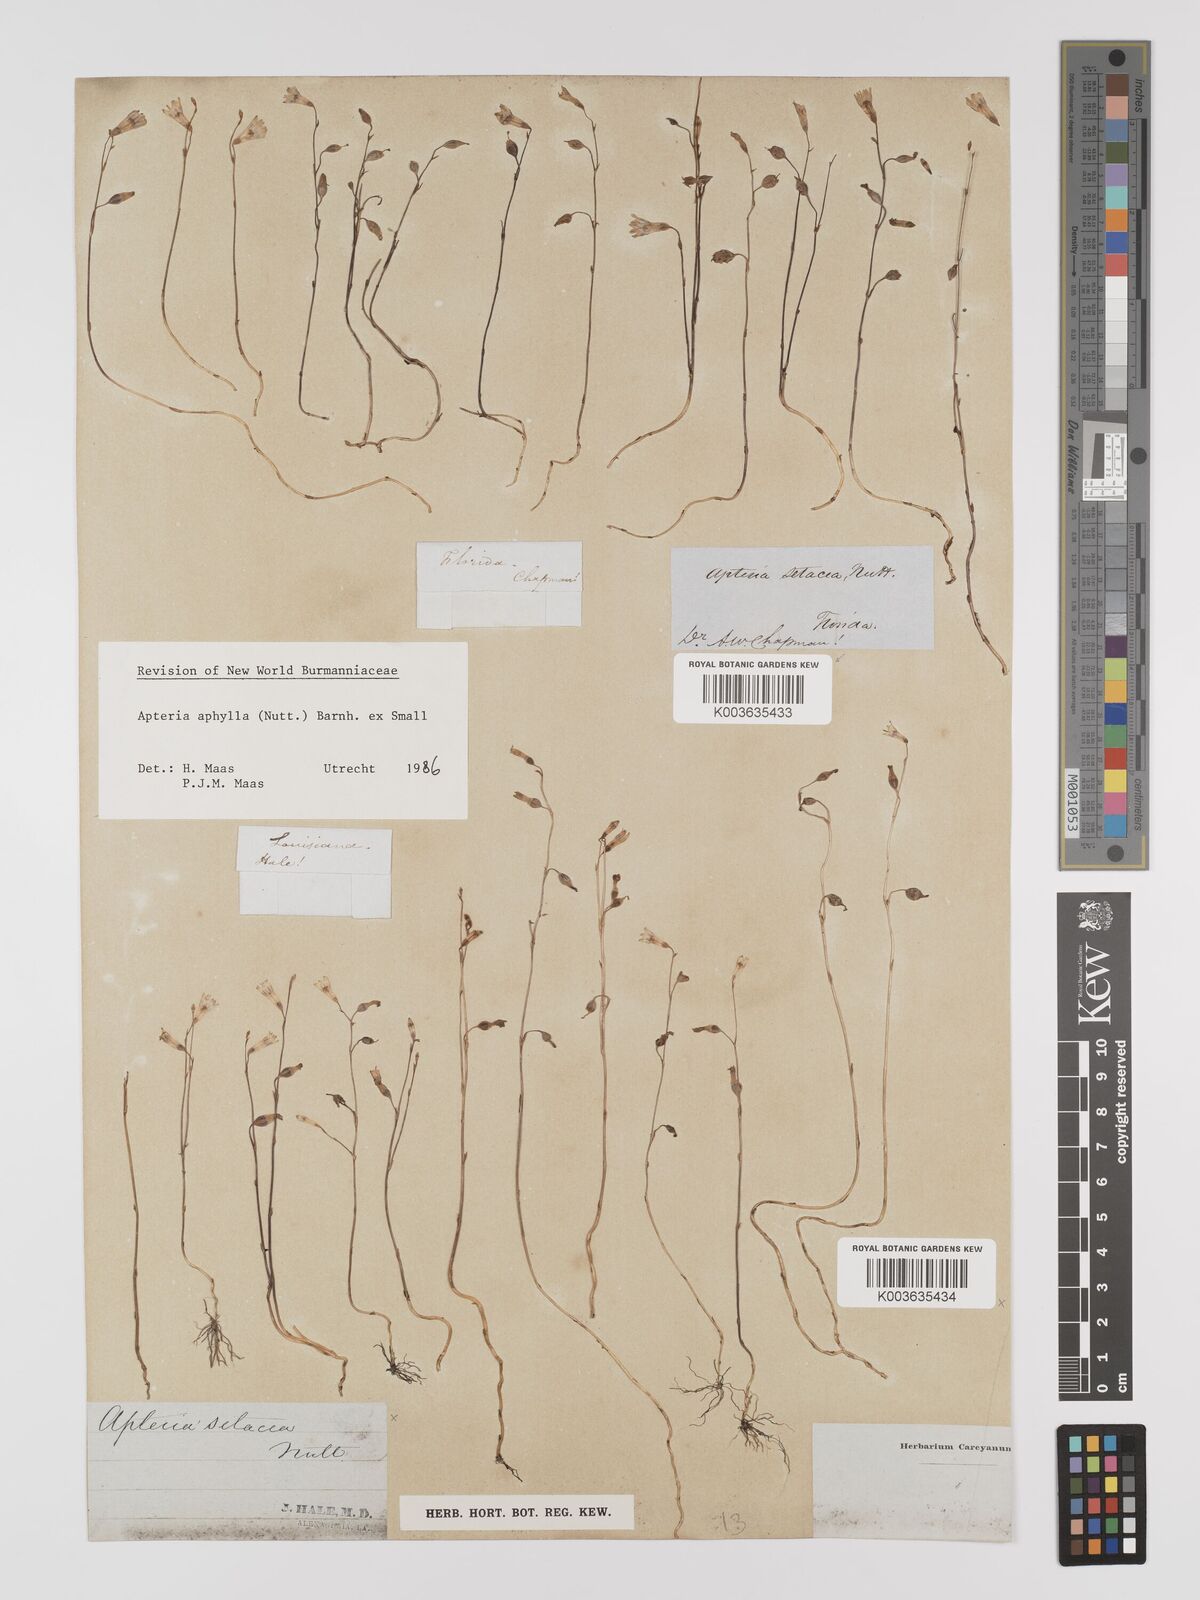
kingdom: Plantae
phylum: Tracheophyta
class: Liliopsida
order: Dioscoreales
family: Burmanniaceae
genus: Apteria
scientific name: Apteria aphylla
